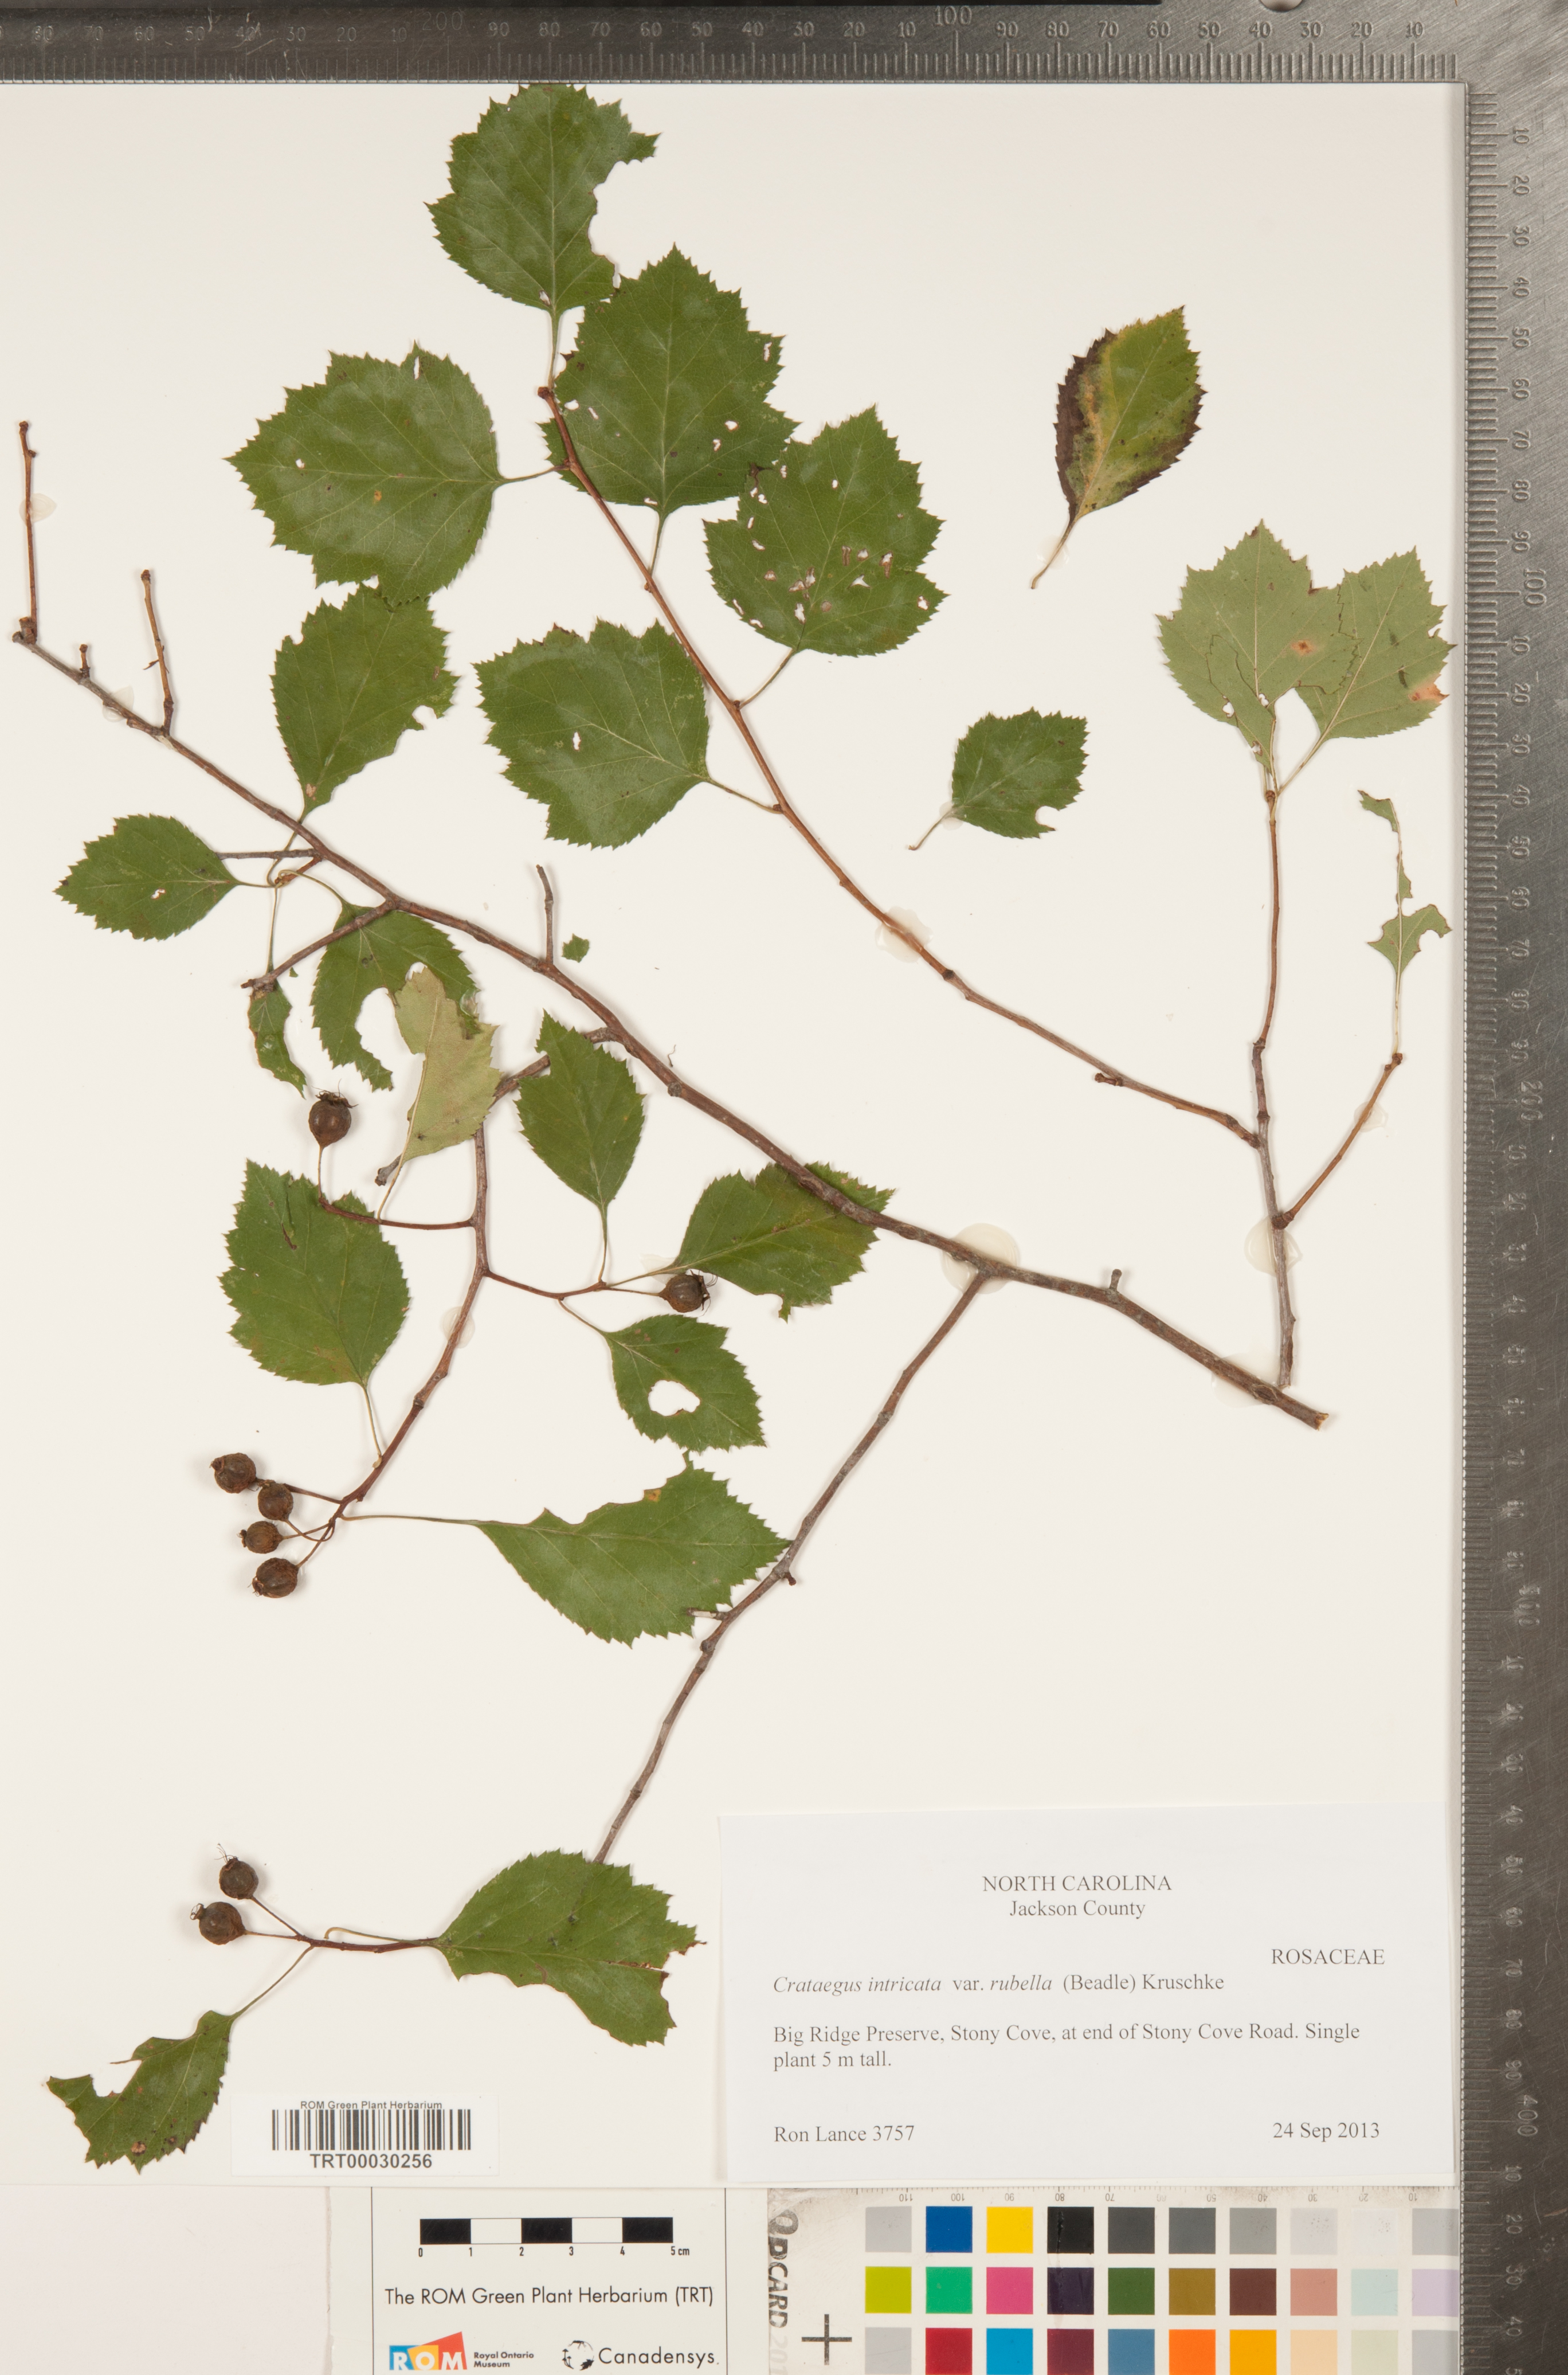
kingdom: Plantae
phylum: Tracheophyta
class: Magnoliopsida
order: Rosales
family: Rosaceae
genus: Crataegus
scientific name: Crataegus intricata
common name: Biltmore hawthorn
